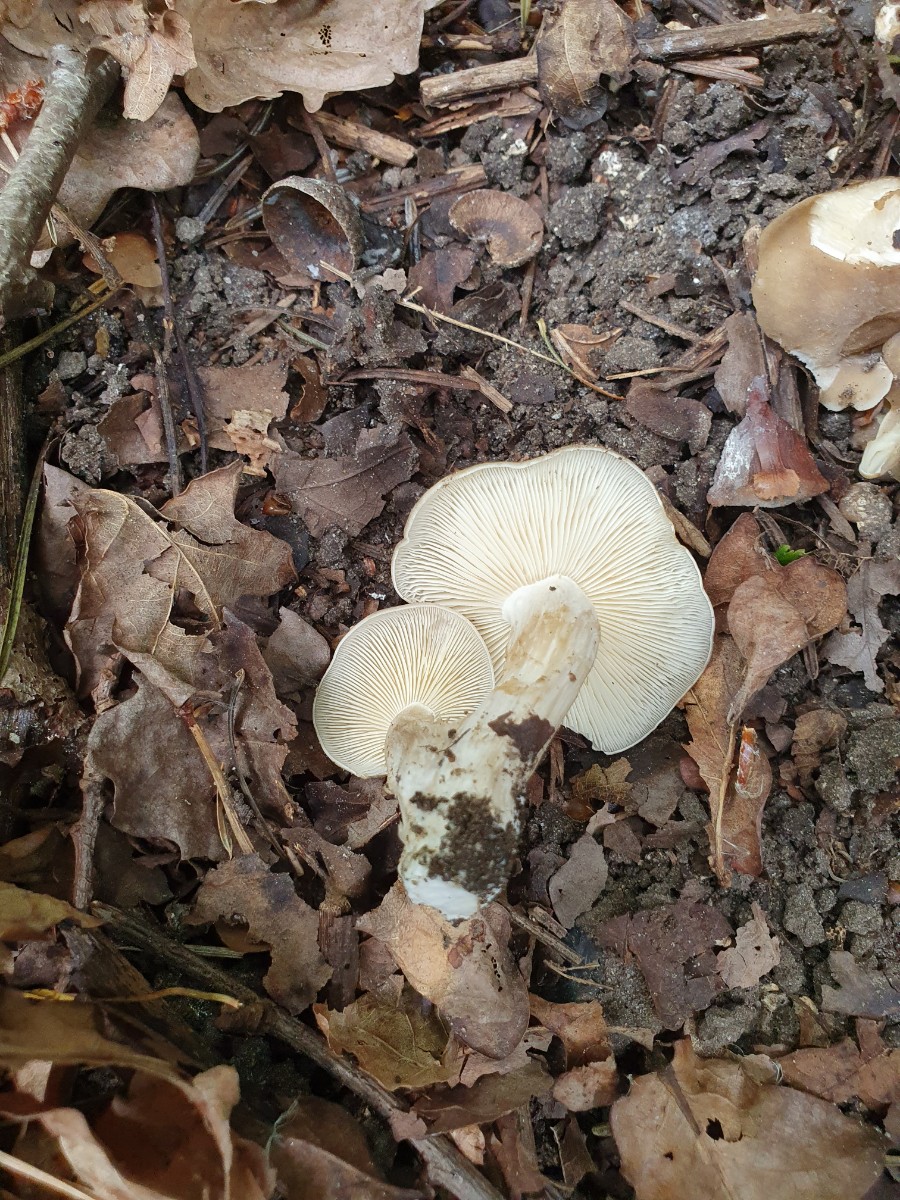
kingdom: Fungi
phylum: Basidiomycota
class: Agaricomycetes
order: Agaricales
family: Lyophyllaceae
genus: Lyophyllum
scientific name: Lyophyllum decastes
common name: røggrå gråblad
